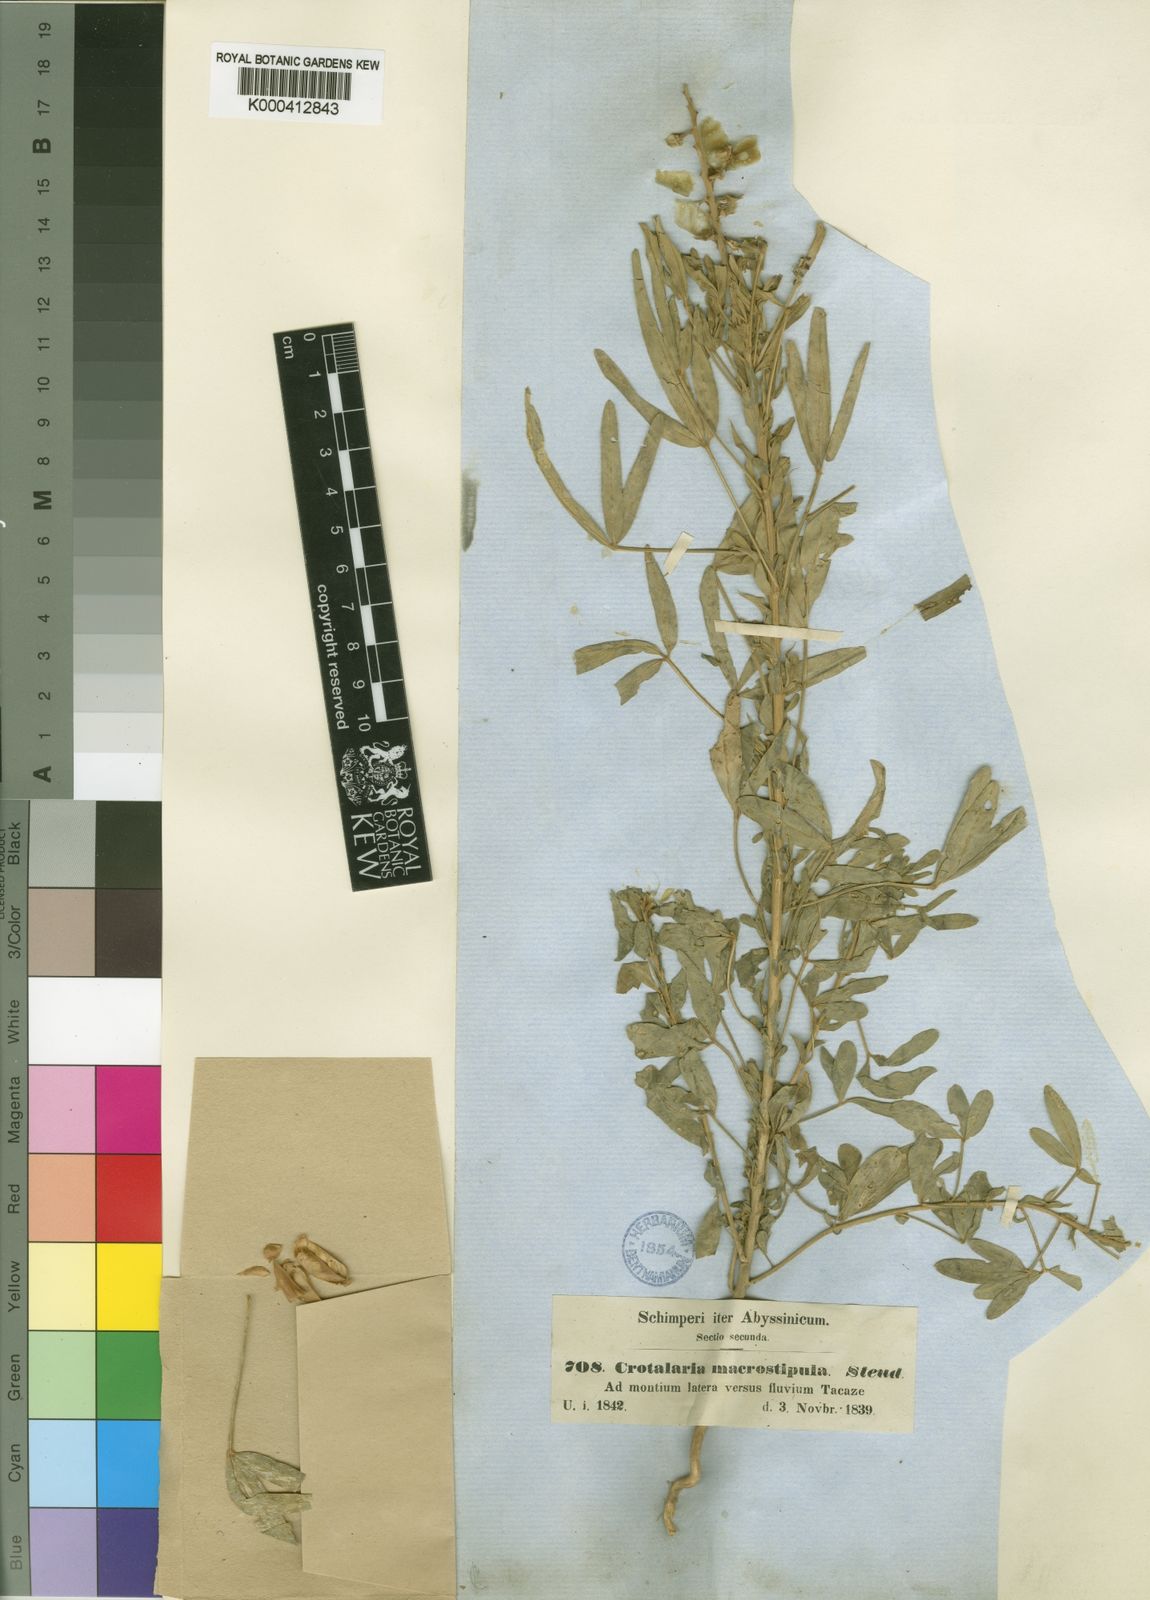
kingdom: Plantae
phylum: Tracheophyta
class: Magnoliopsida
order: Fabales
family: Fabaceae
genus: Crotalaria
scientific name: Crotalaria goreensis
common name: Gambia-pea
